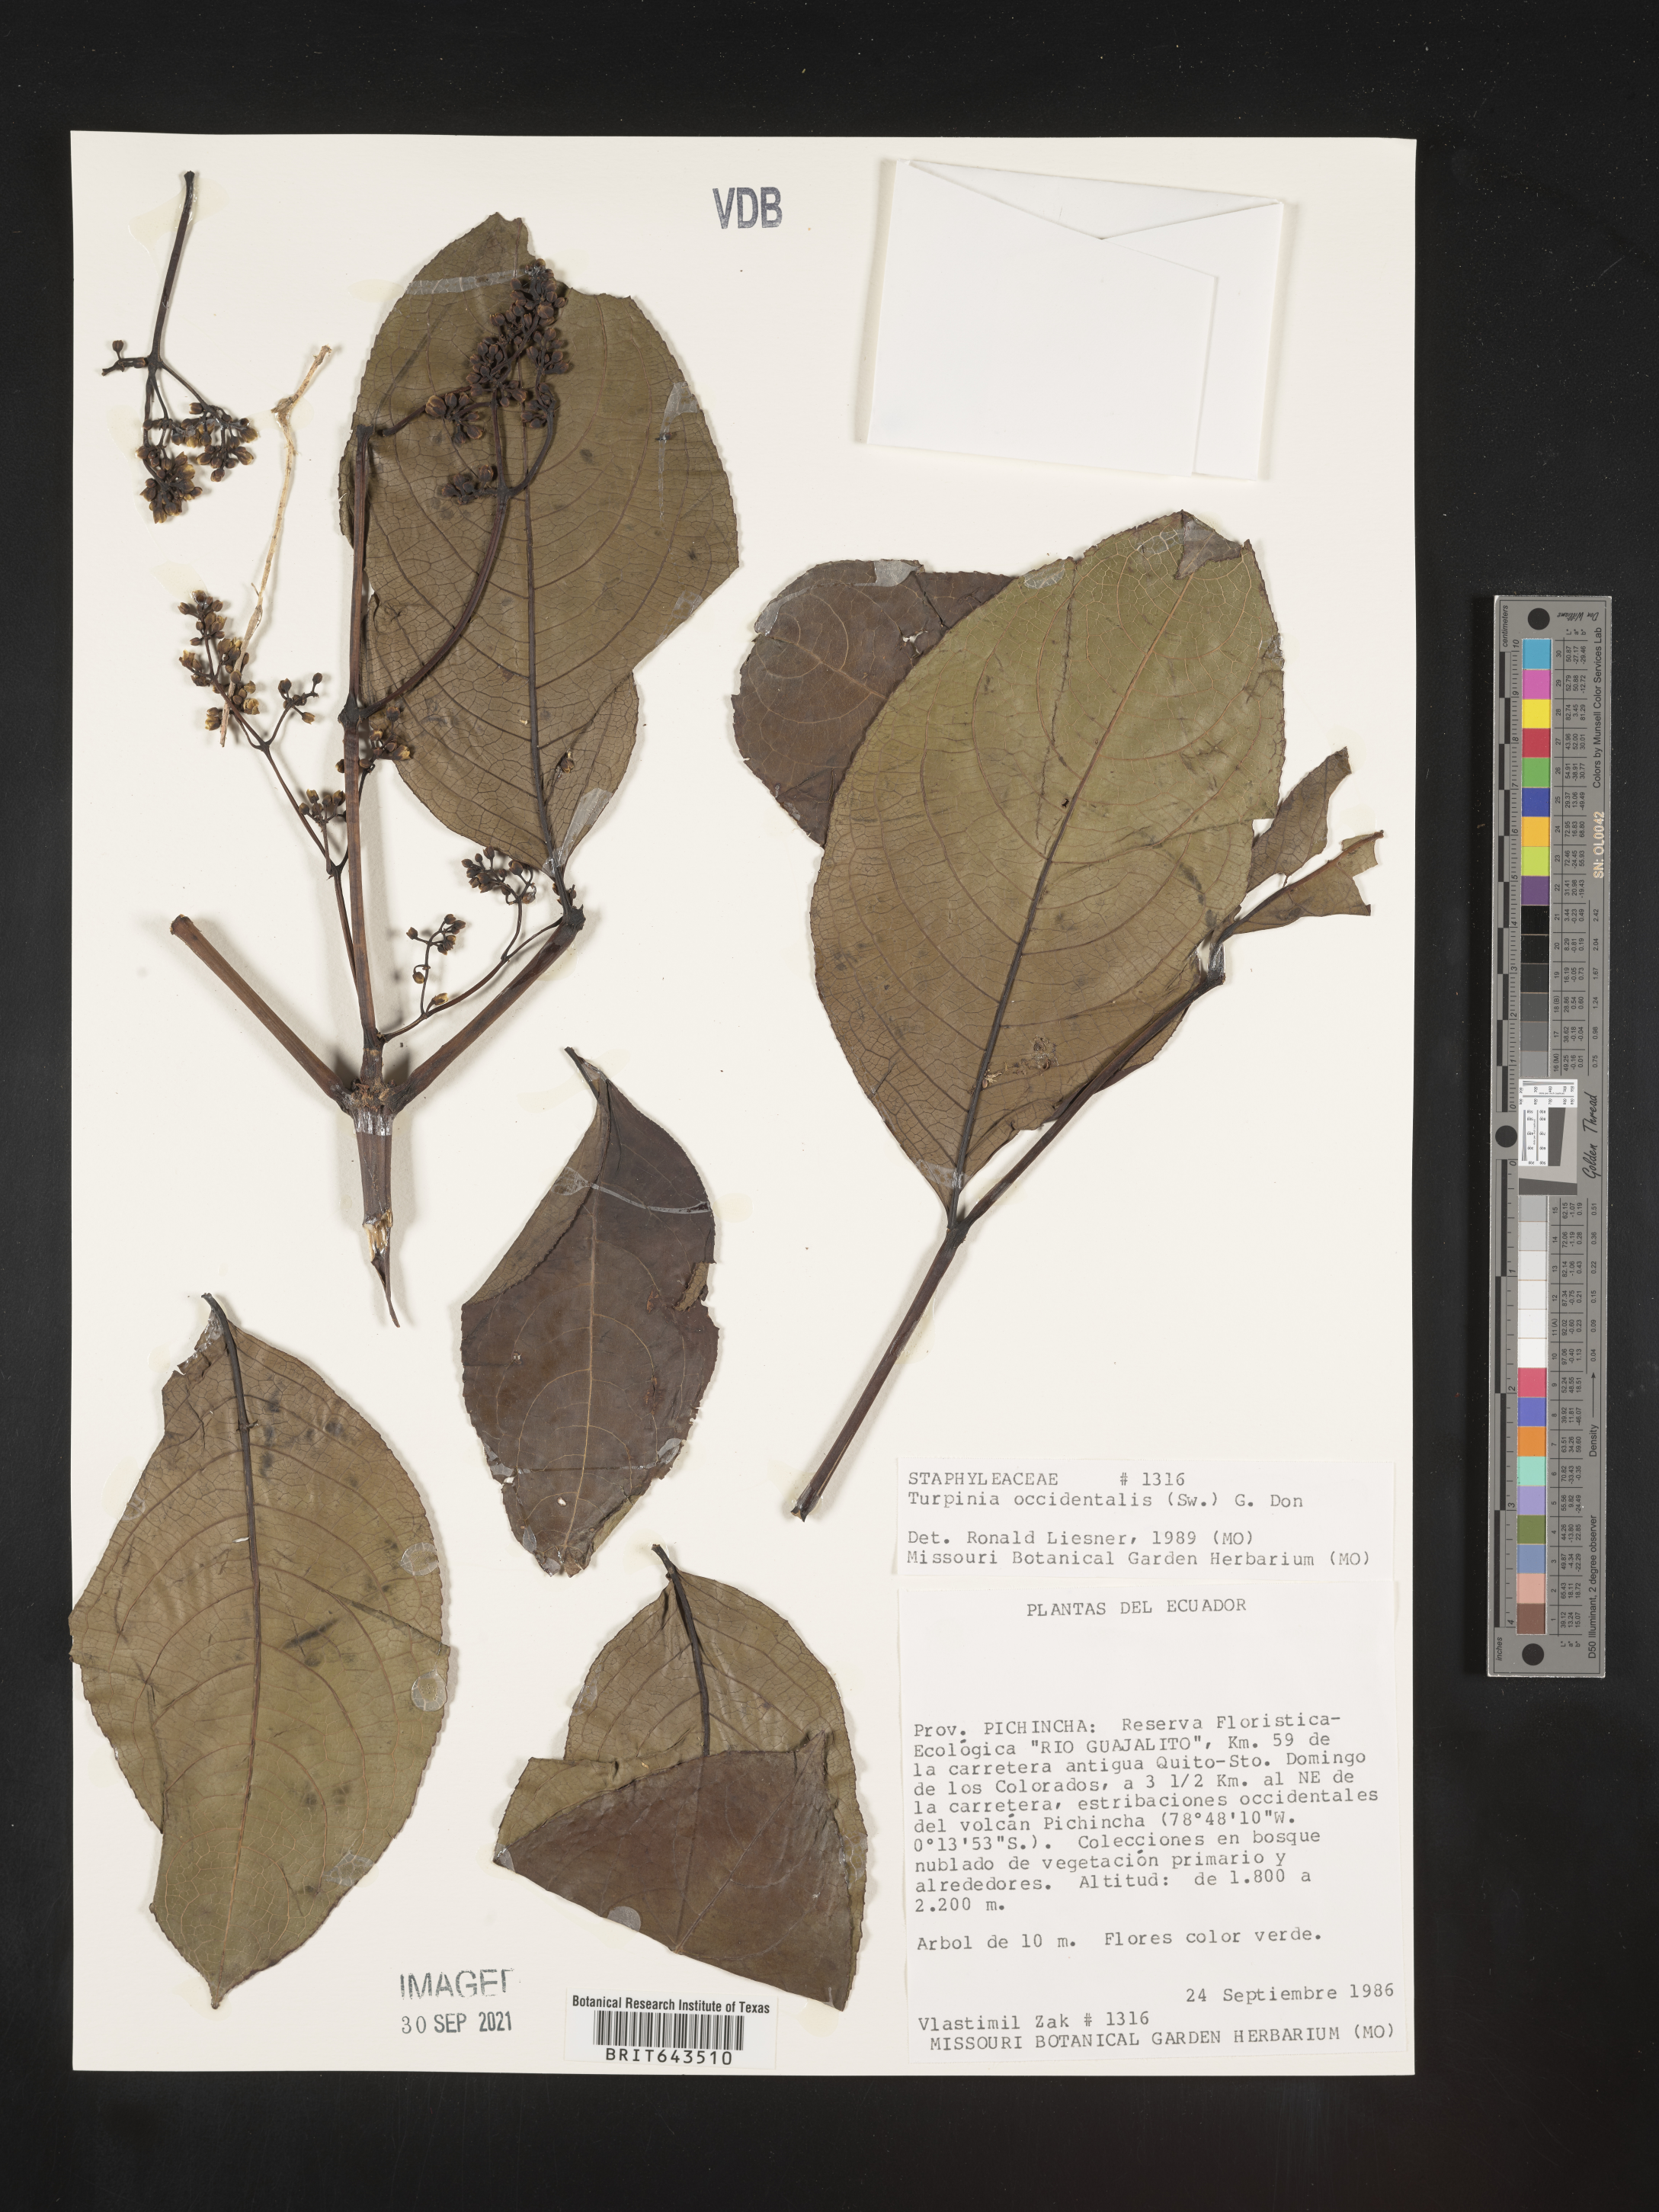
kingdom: Plantae
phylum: Tracheophyta
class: Magnoliopsida
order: Crossosomatales
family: Staphyleaceae
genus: Turpinia
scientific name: Turpinia
